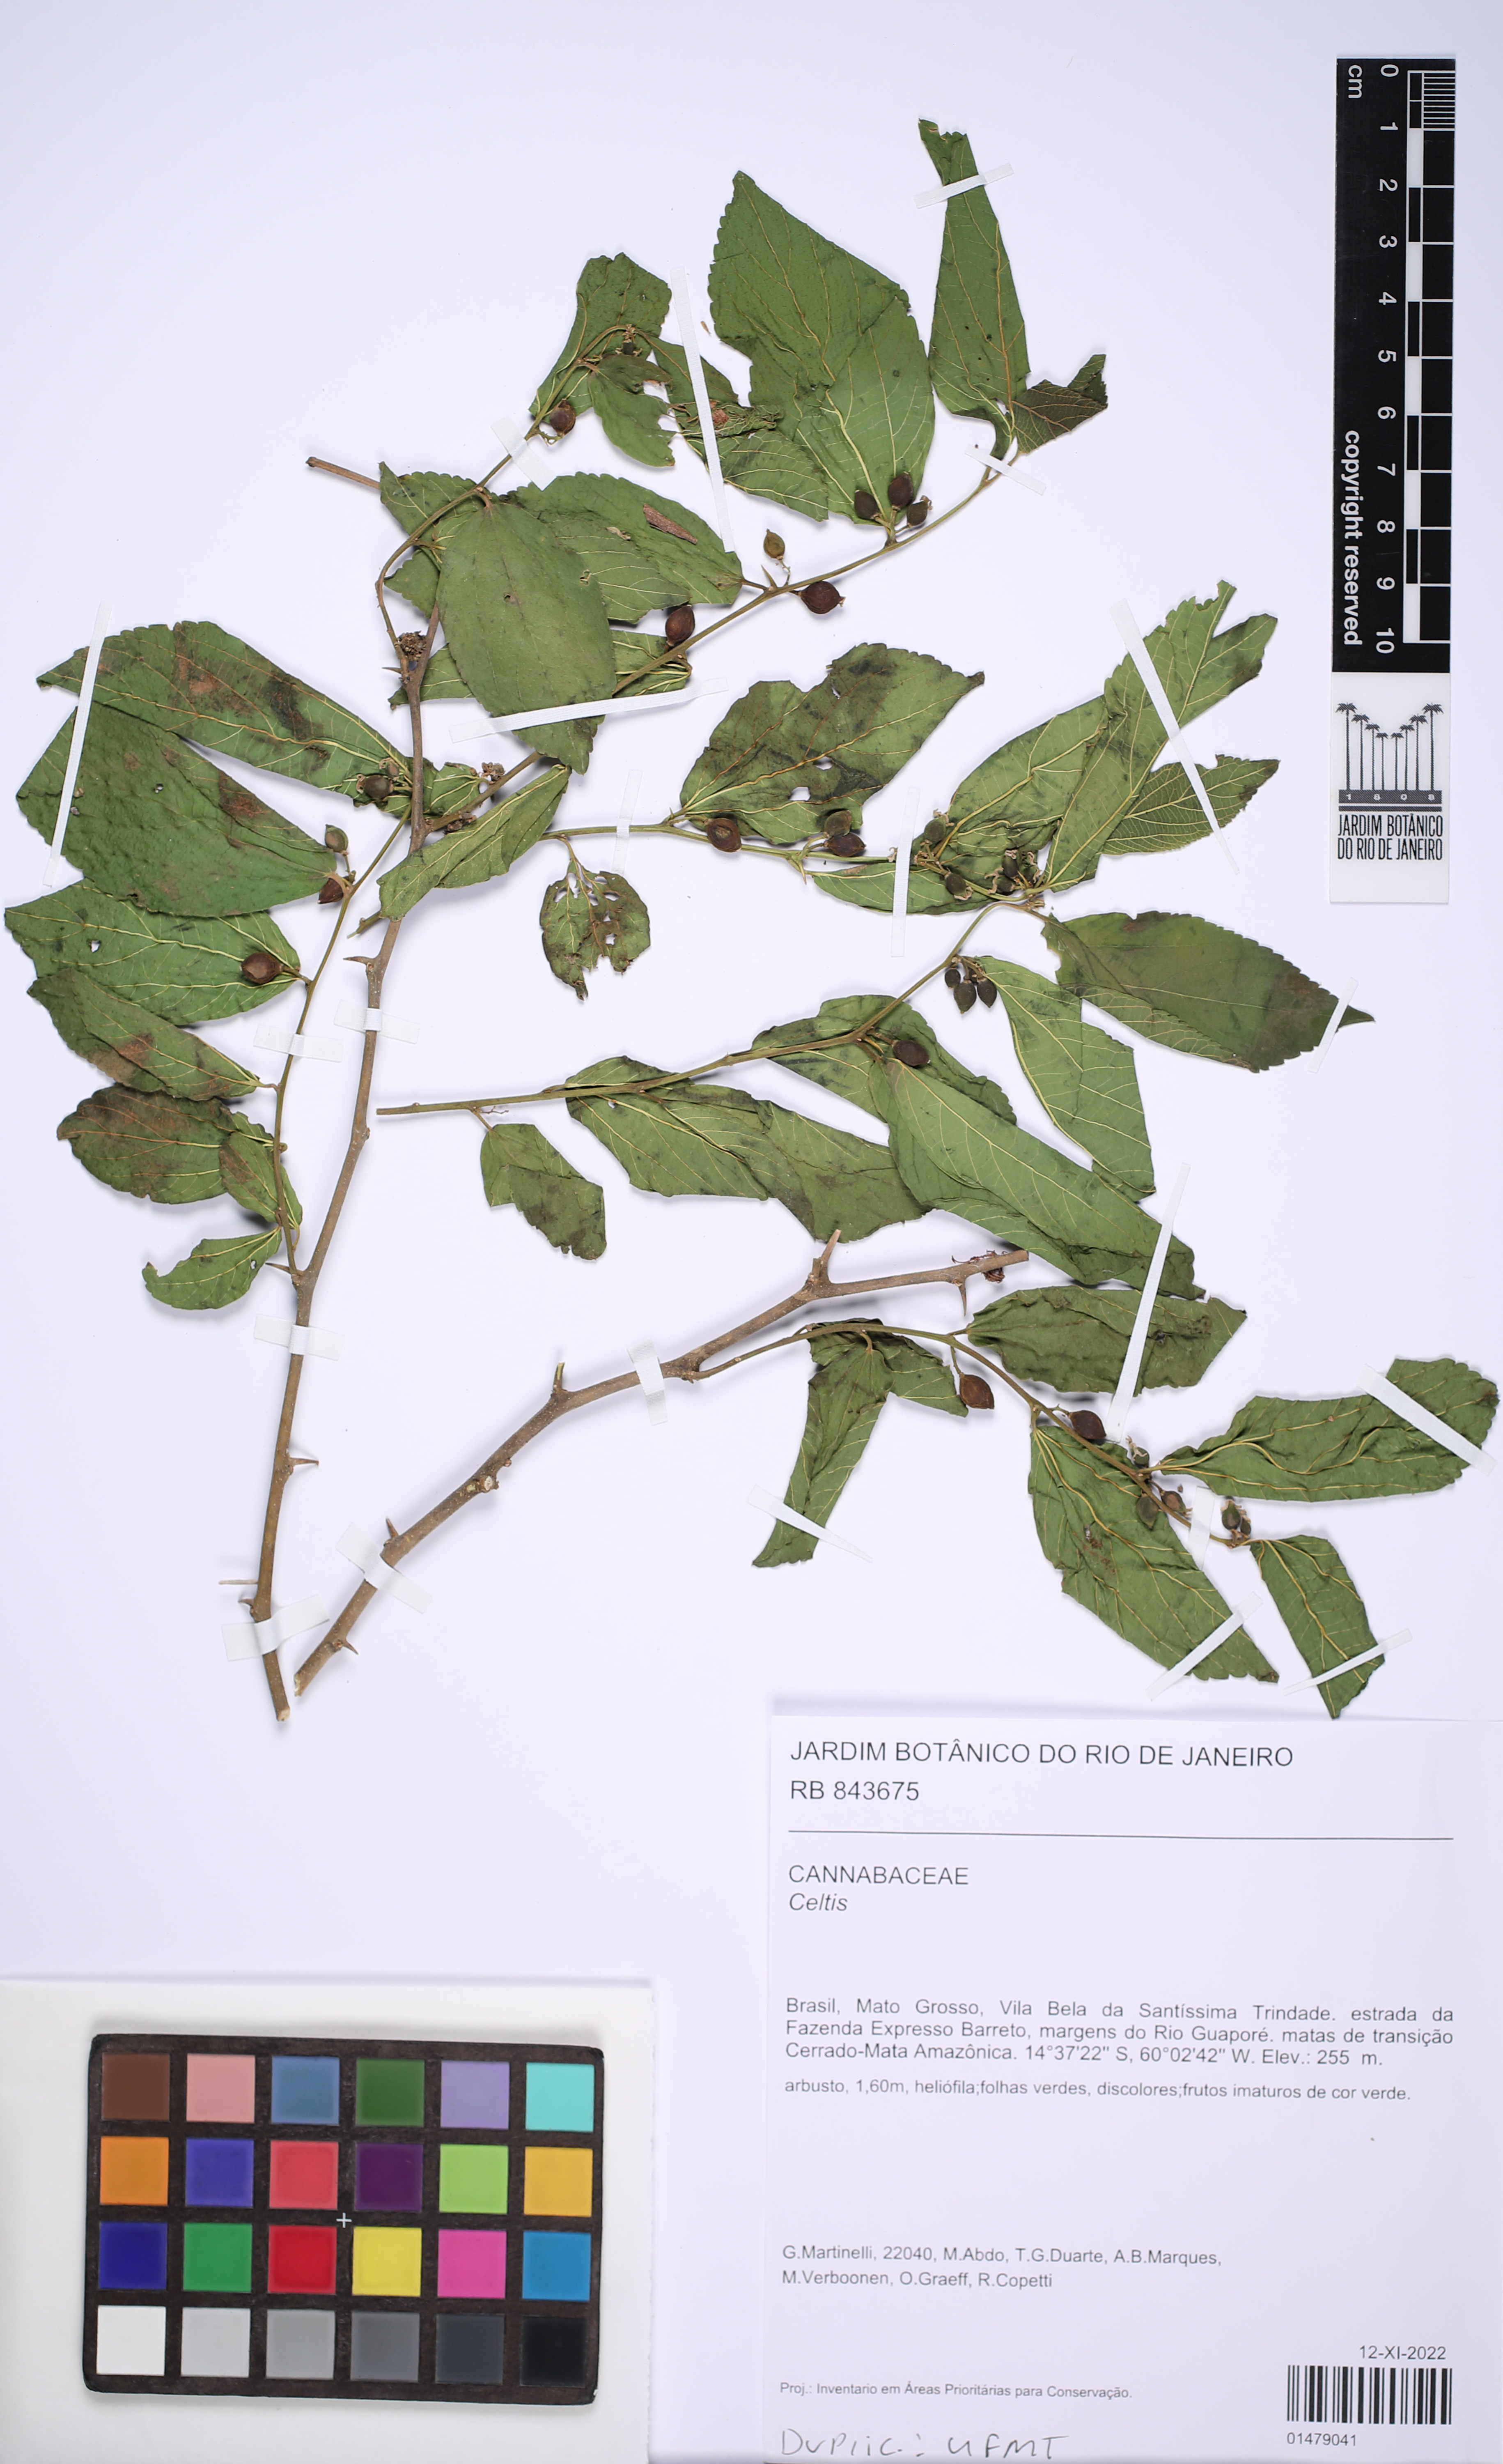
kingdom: Plantae
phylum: Tracheophyta
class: Magnoliopsida
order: Rosales
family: Cannabaceae
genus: Celtis
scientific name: Celtis
